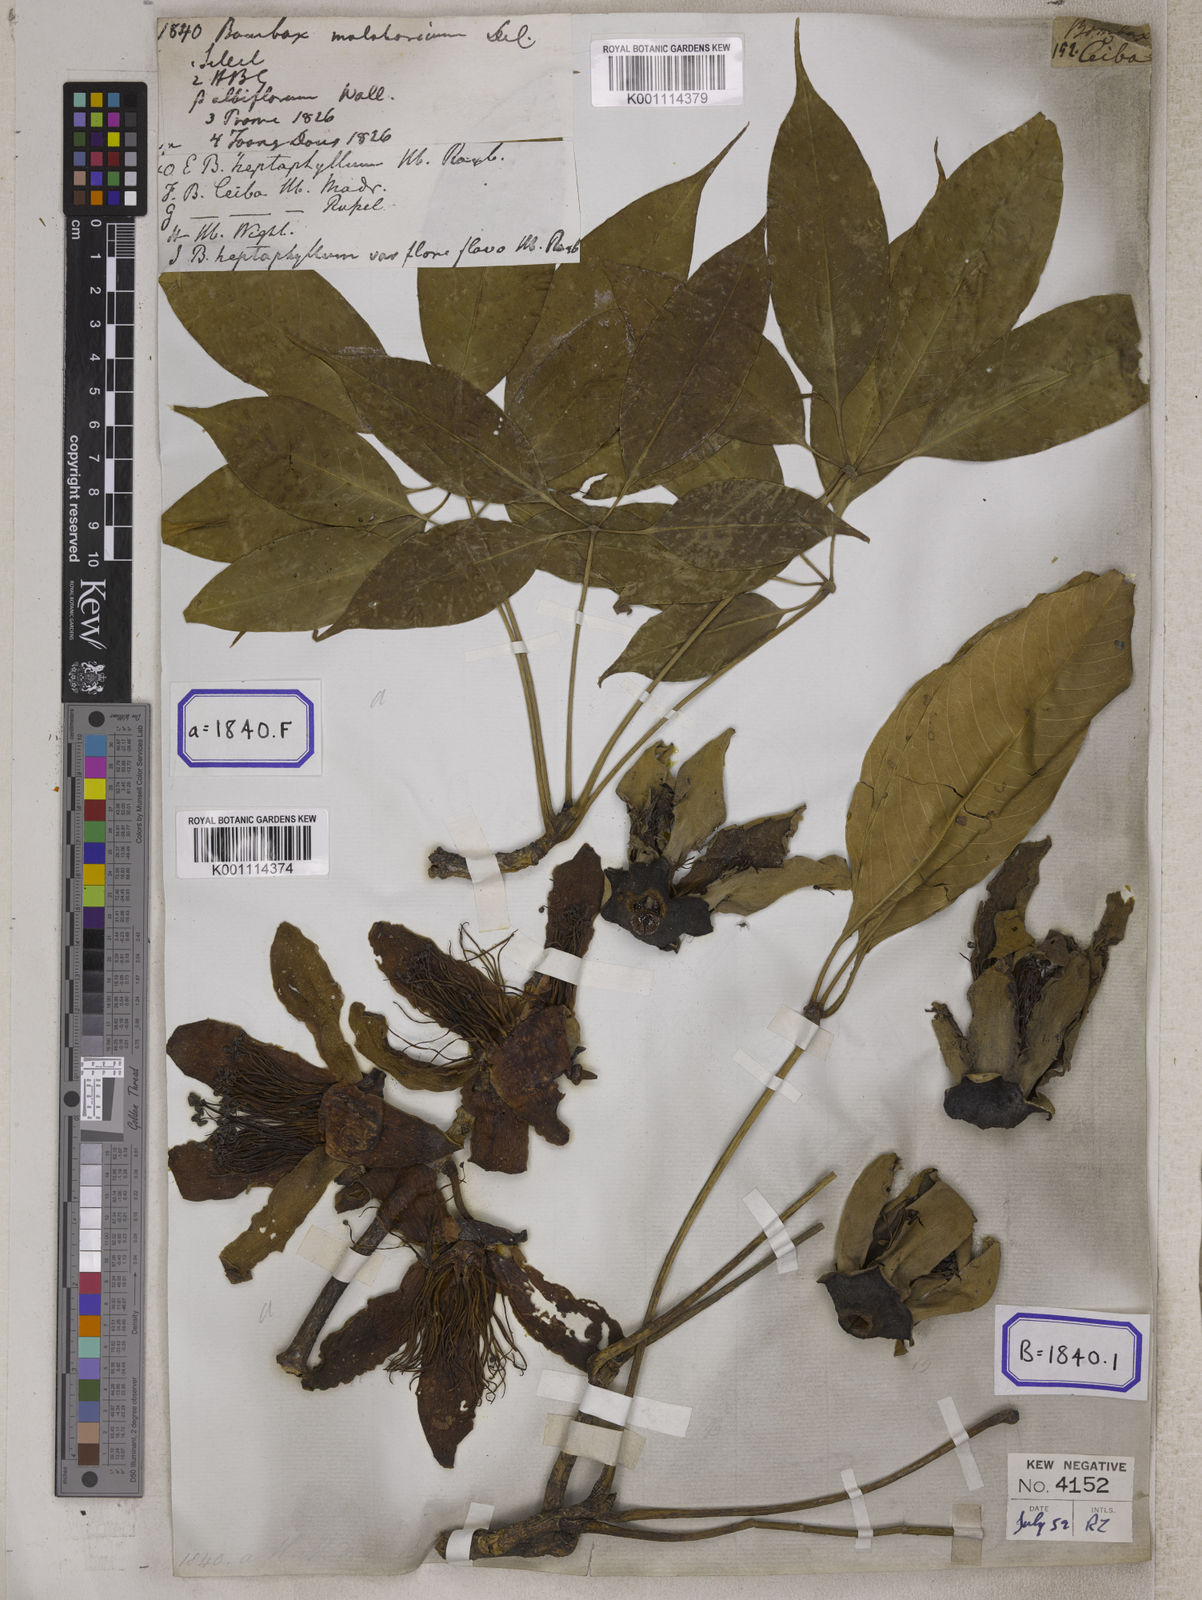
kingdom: Plantae
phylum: Tracheophyta
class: Magnoliopsida
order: Malvales
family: Malvaceae
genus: Bombax
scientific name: Bombax ceiba
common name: Northern-cottonwood
